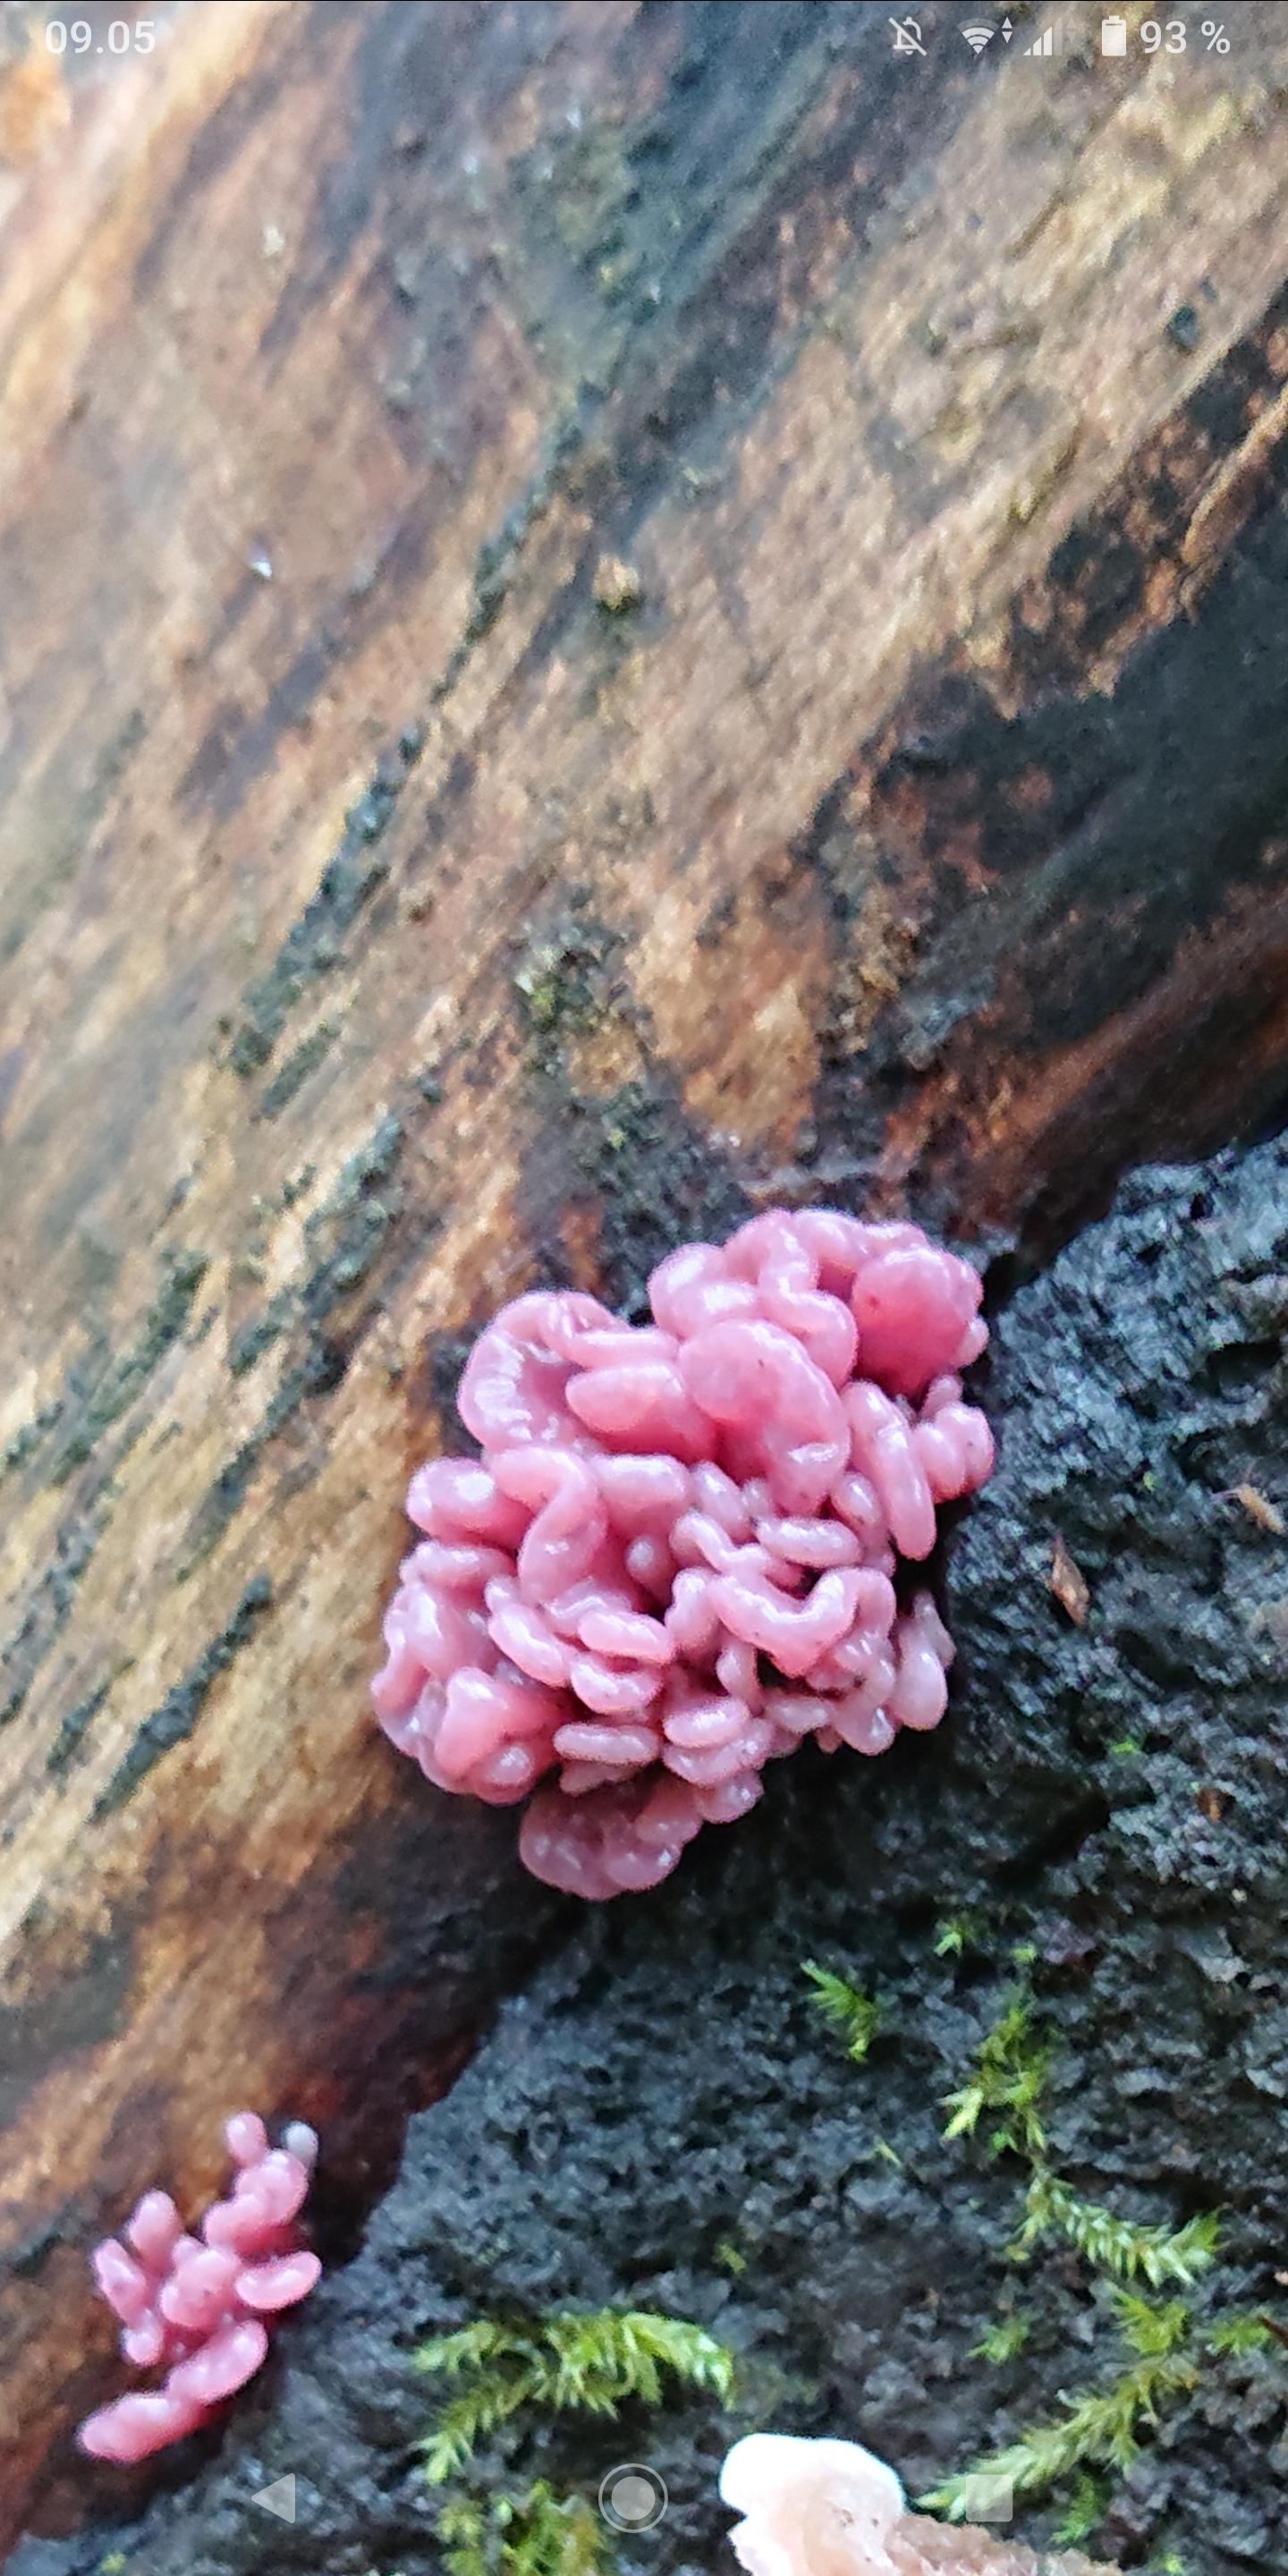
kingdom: Fungi
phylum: Ascomycota
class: Leotiomycetes
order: Helotiales
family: Gelatinodiscaceae
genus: Ascocoryne
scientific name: Ascocoryne sarcoides
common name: rødlilla sejskive
